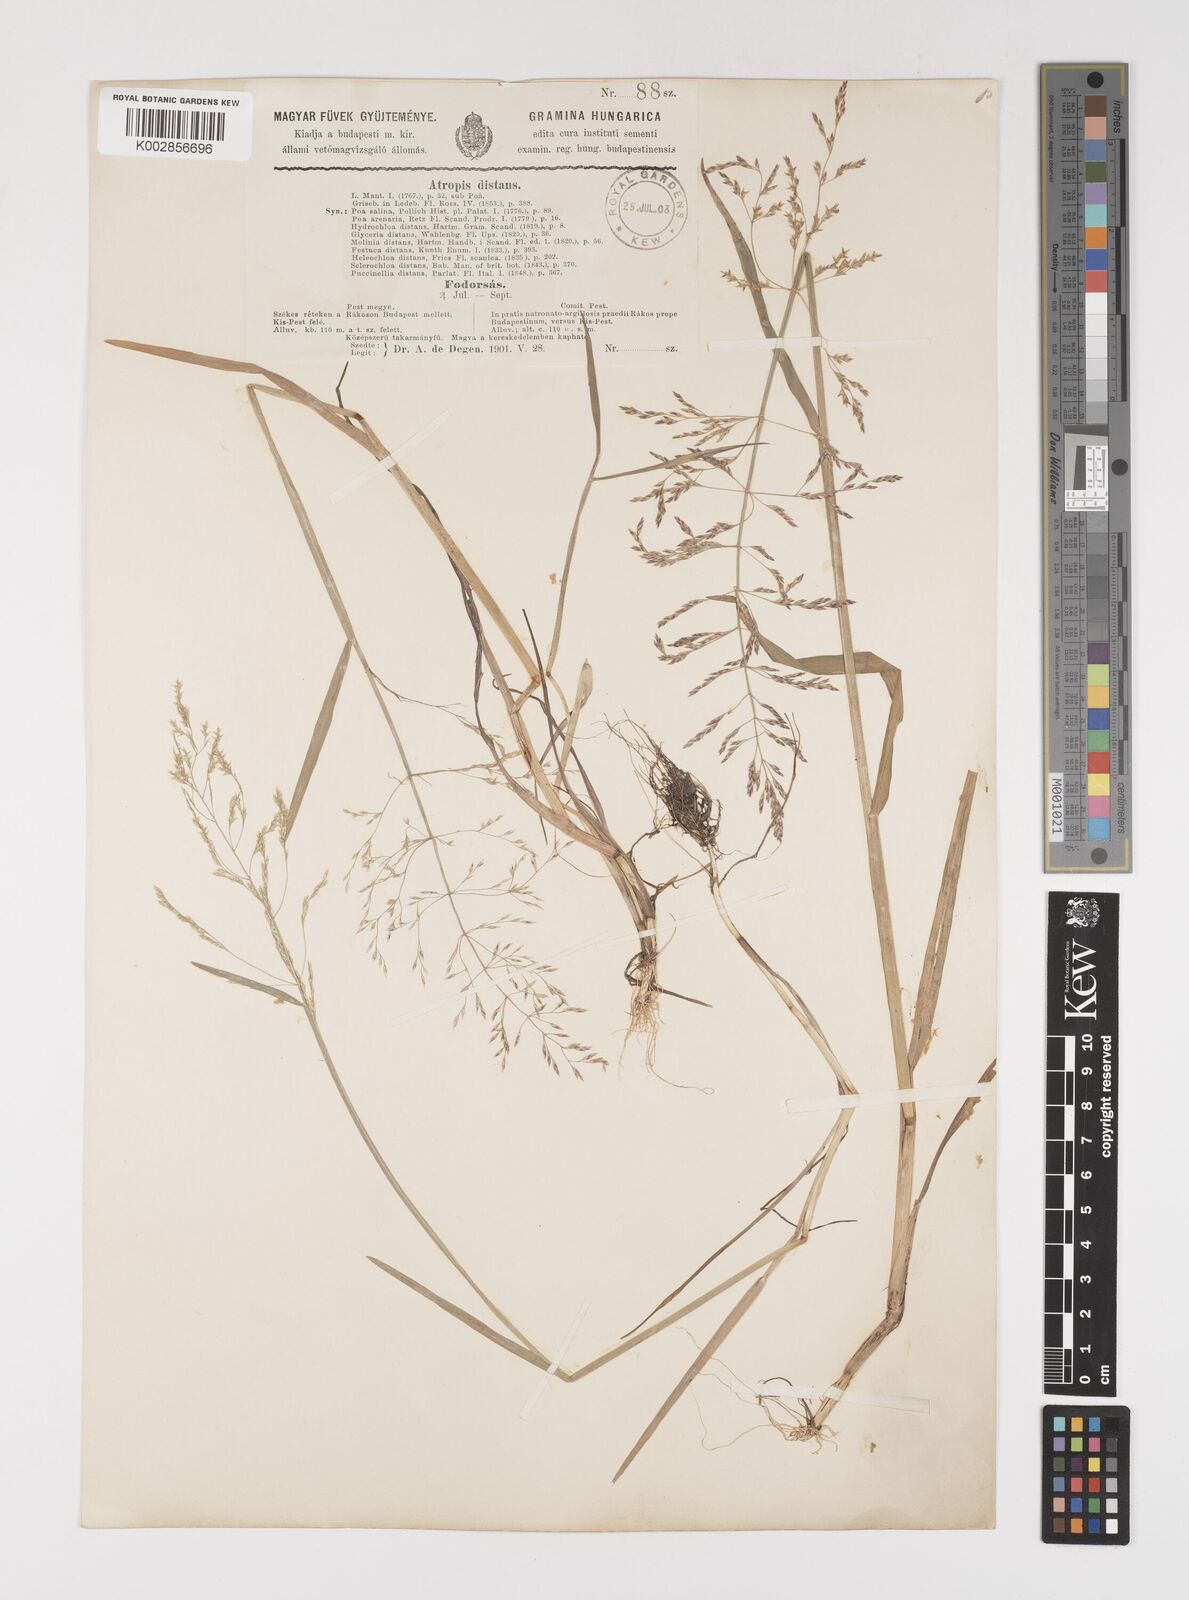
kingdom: Plantae
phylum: Tracheophyta
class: Liliopsida
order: Poales
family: Poaceae
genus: Puccinellia
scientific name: Puccinellia distans
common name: Weeping alkaligrass
